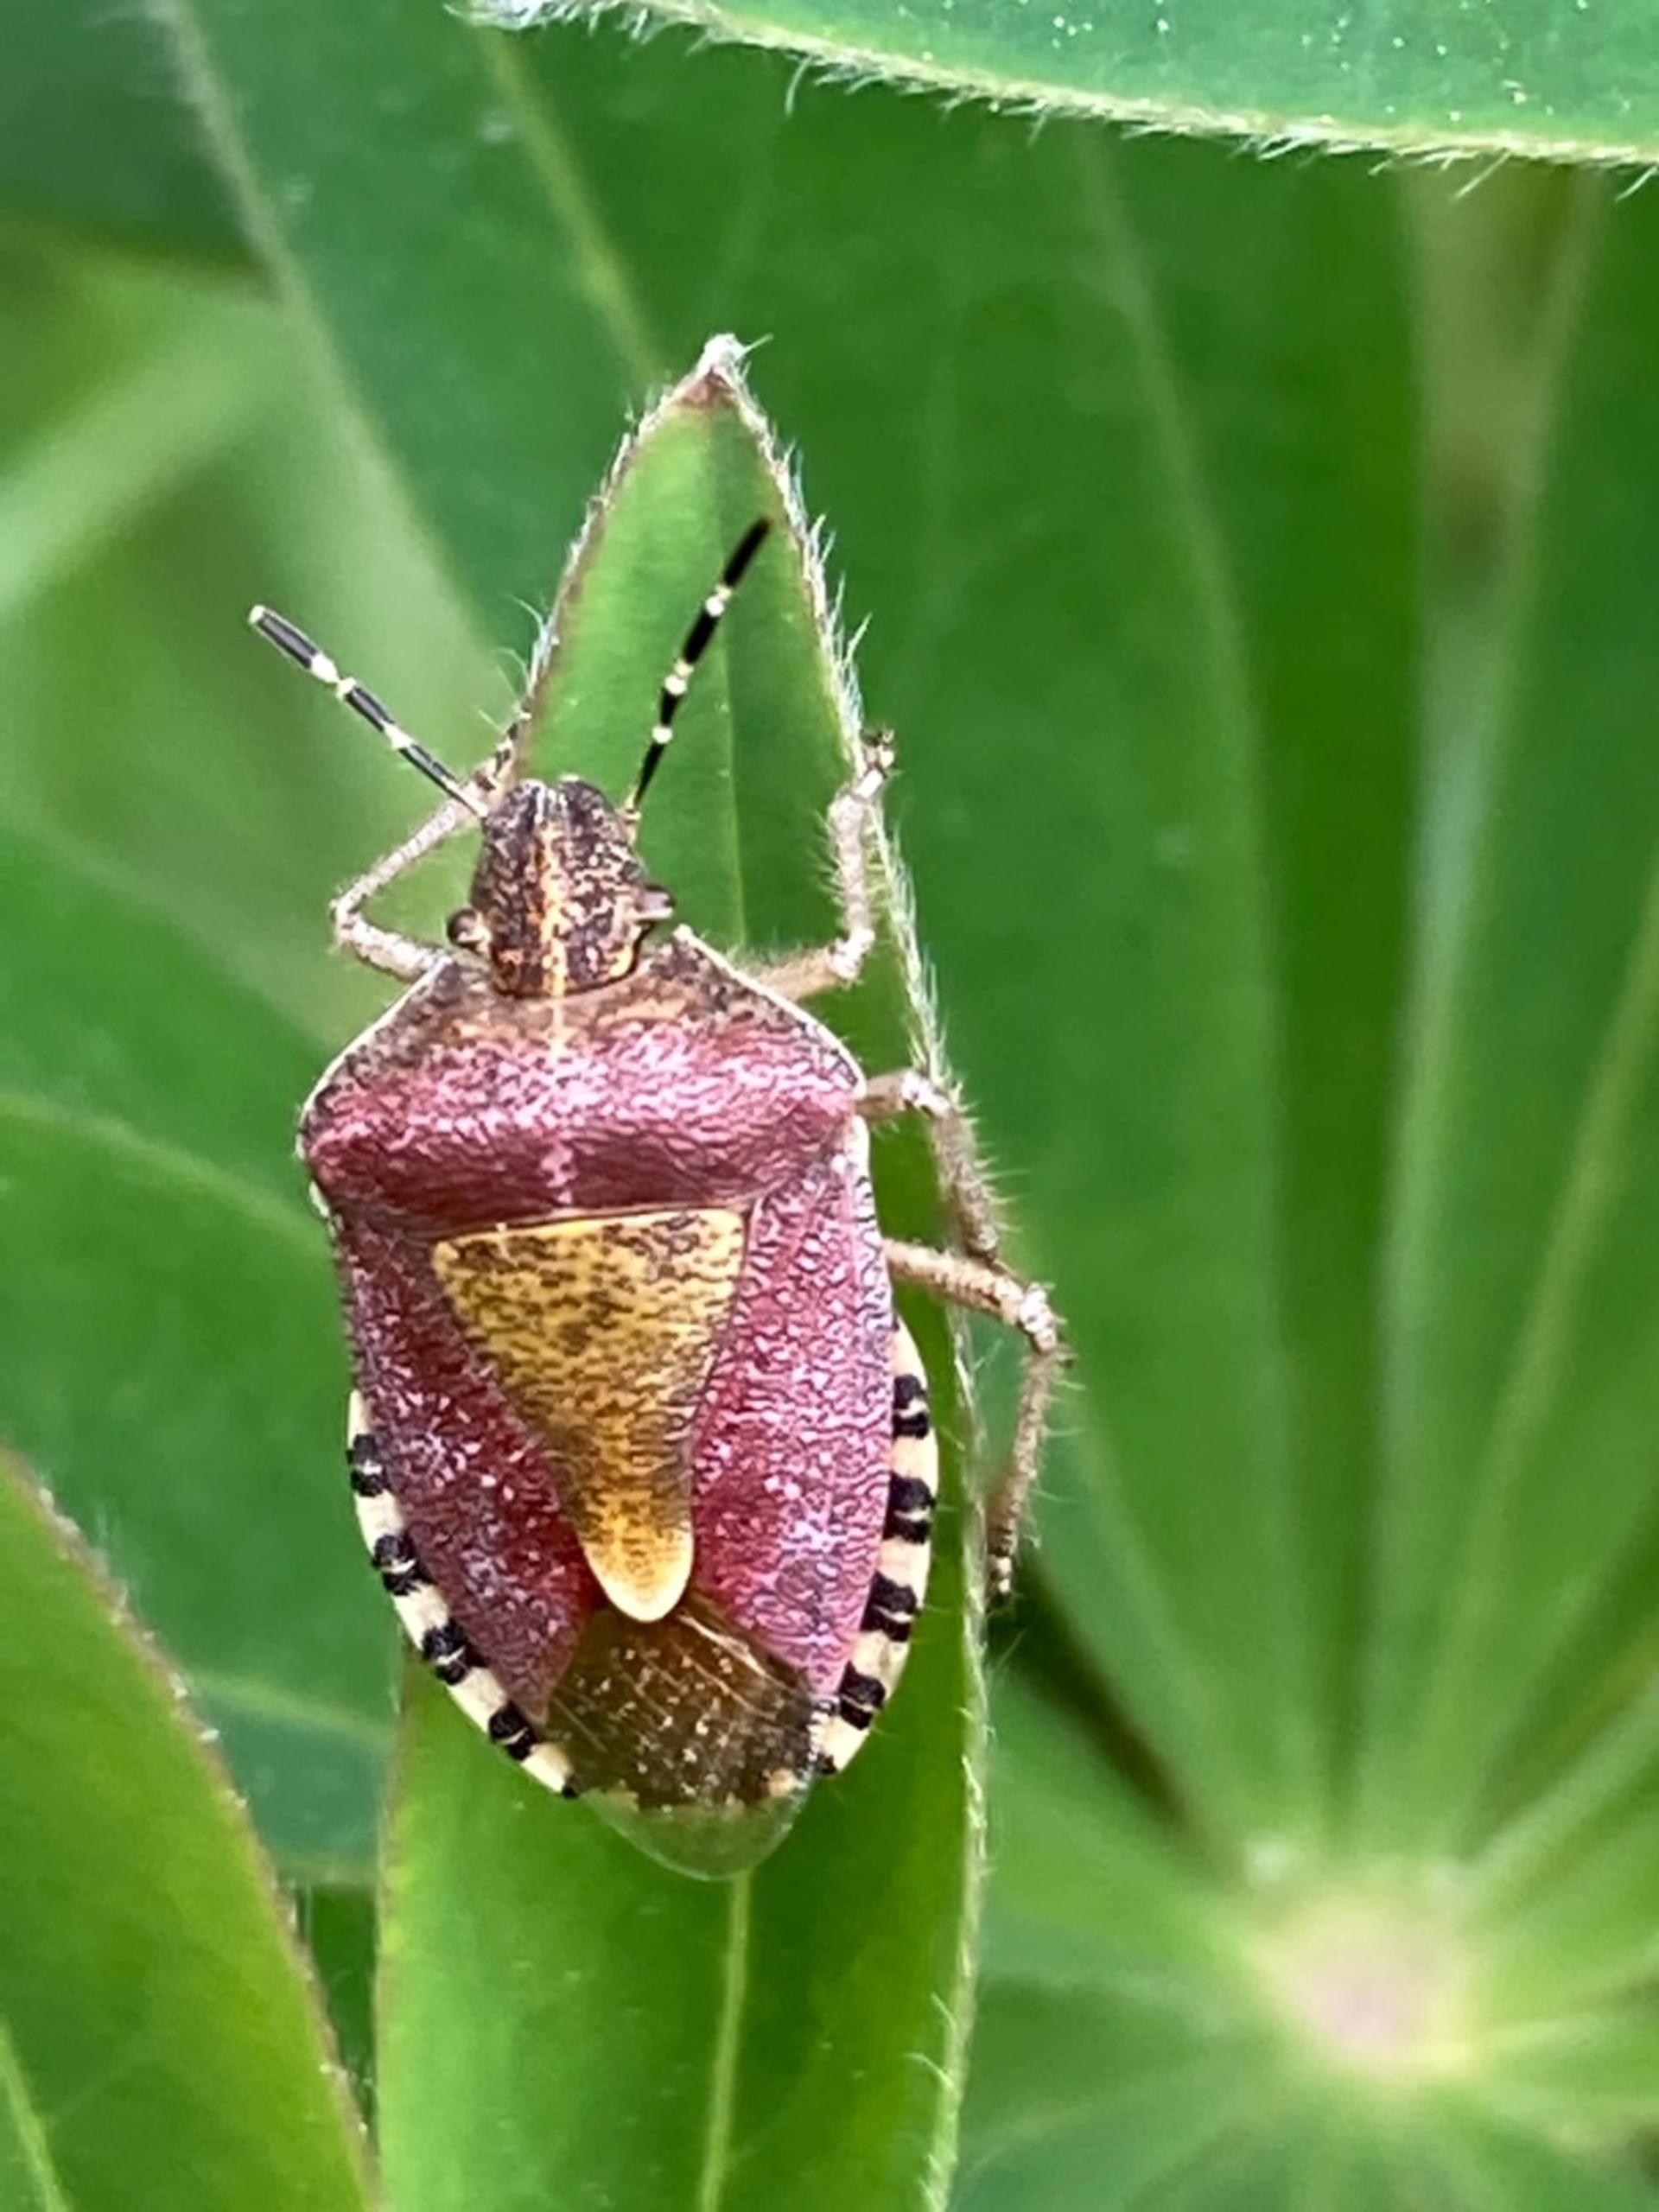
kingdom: Animalia
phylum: Arthropoda
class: Insecta
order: Hemiptera
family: Pentatomidae
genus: Dolycoris
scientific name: Dolycoris baccarum
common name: Almindelig bærtæge
